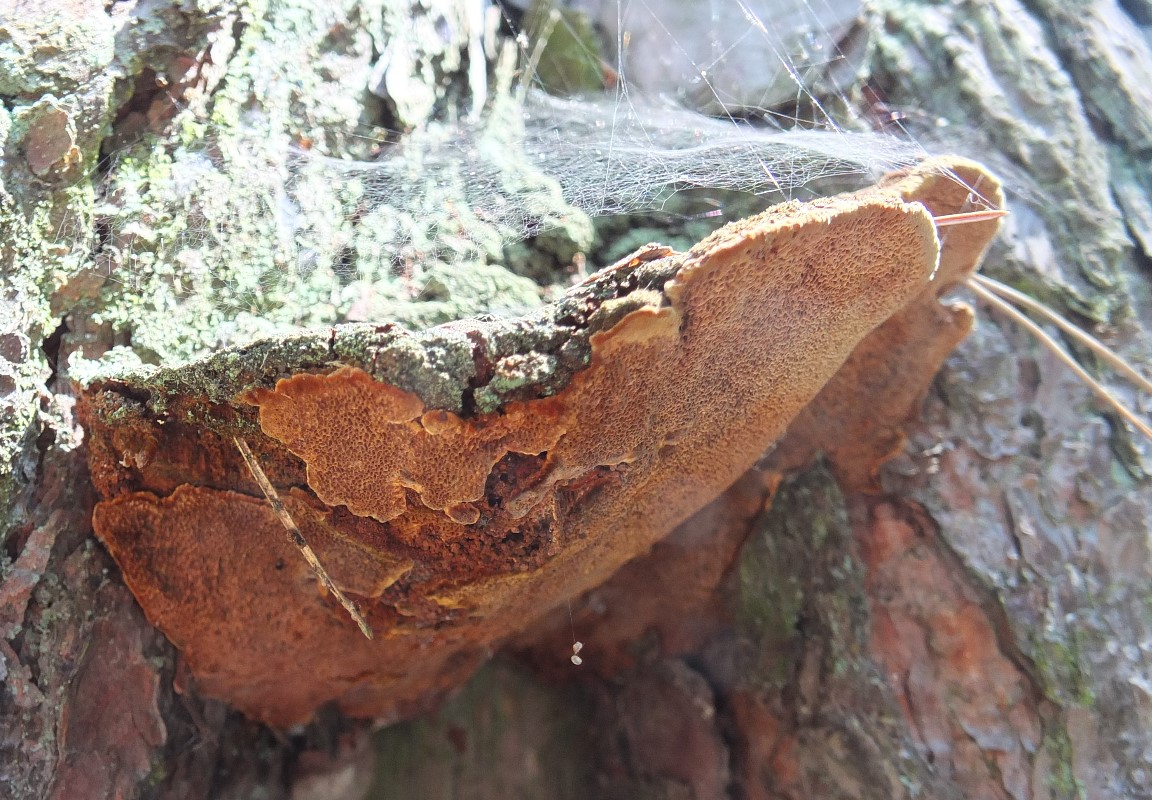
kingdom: Fungi
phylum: Basidiomycota
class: Agaricomycetes
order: Hymenochaetales
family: Hymenochaetaceae
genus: Porodaedalea
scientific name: Porodaedalea pini
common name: fyrre-ildporesvamp
